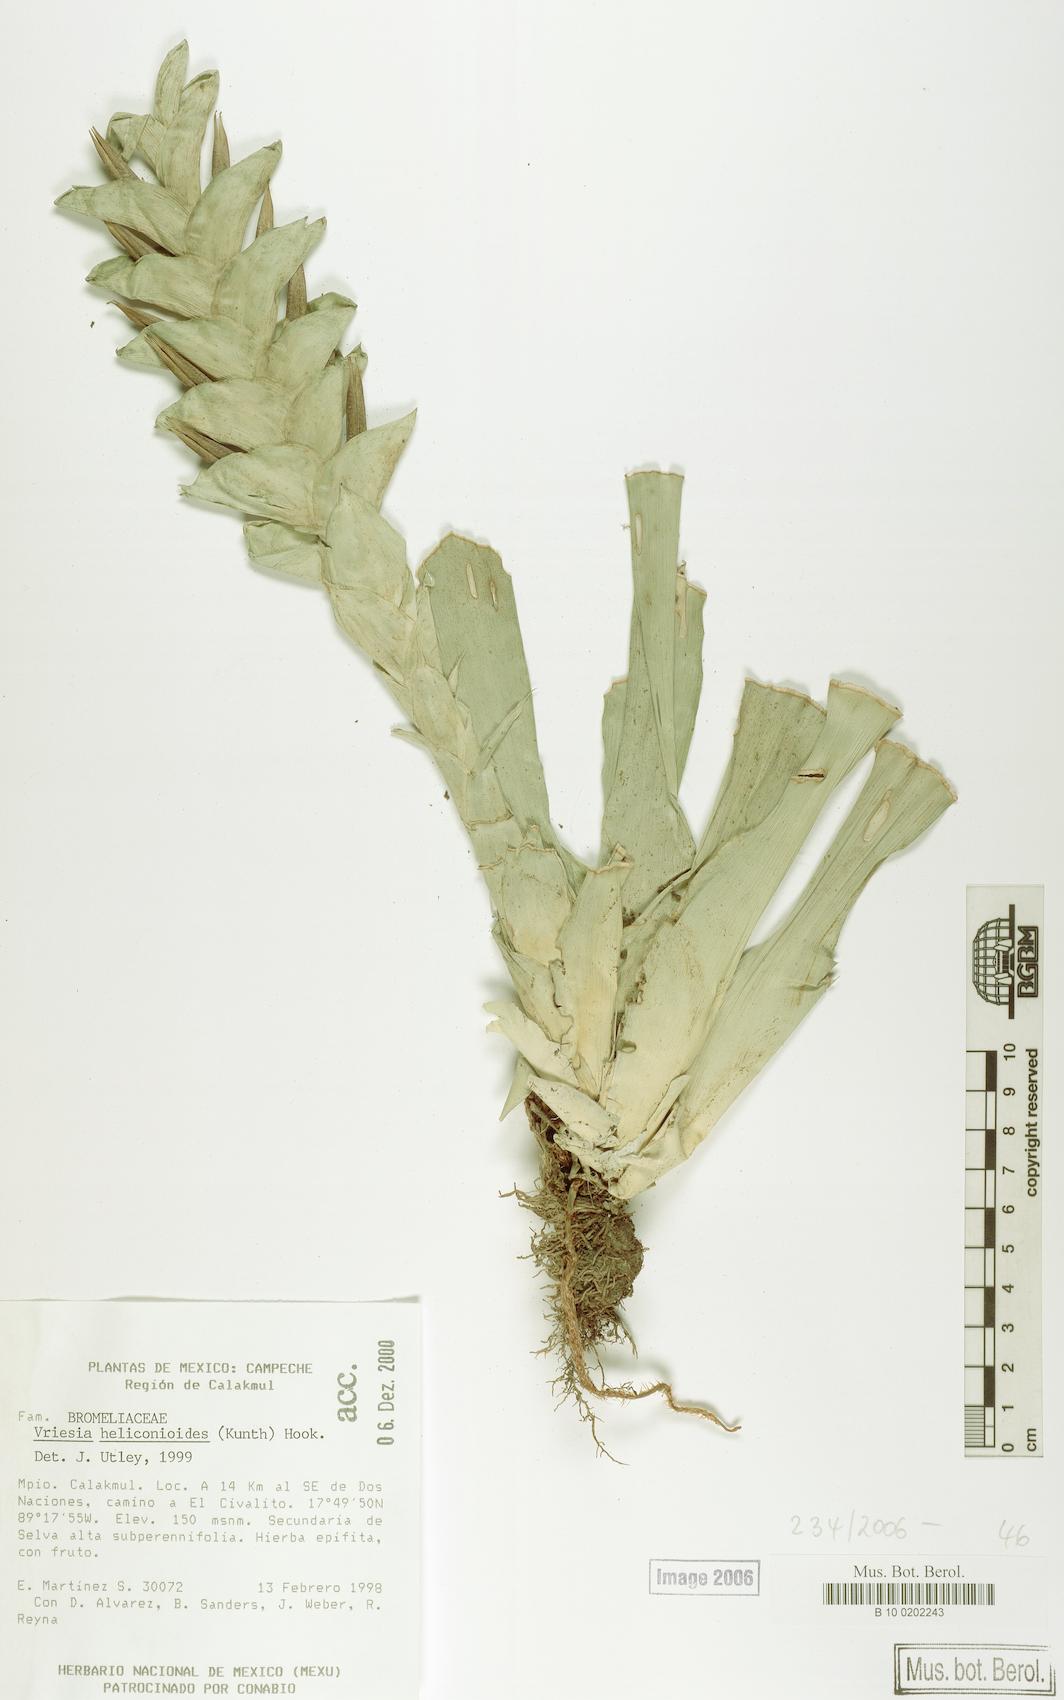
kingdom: Plantae
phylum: Tracheophyta
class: Liliopsida
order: Poales
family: Bromeliaceae
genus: Vriesea
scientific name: Vriesea heliconioides
